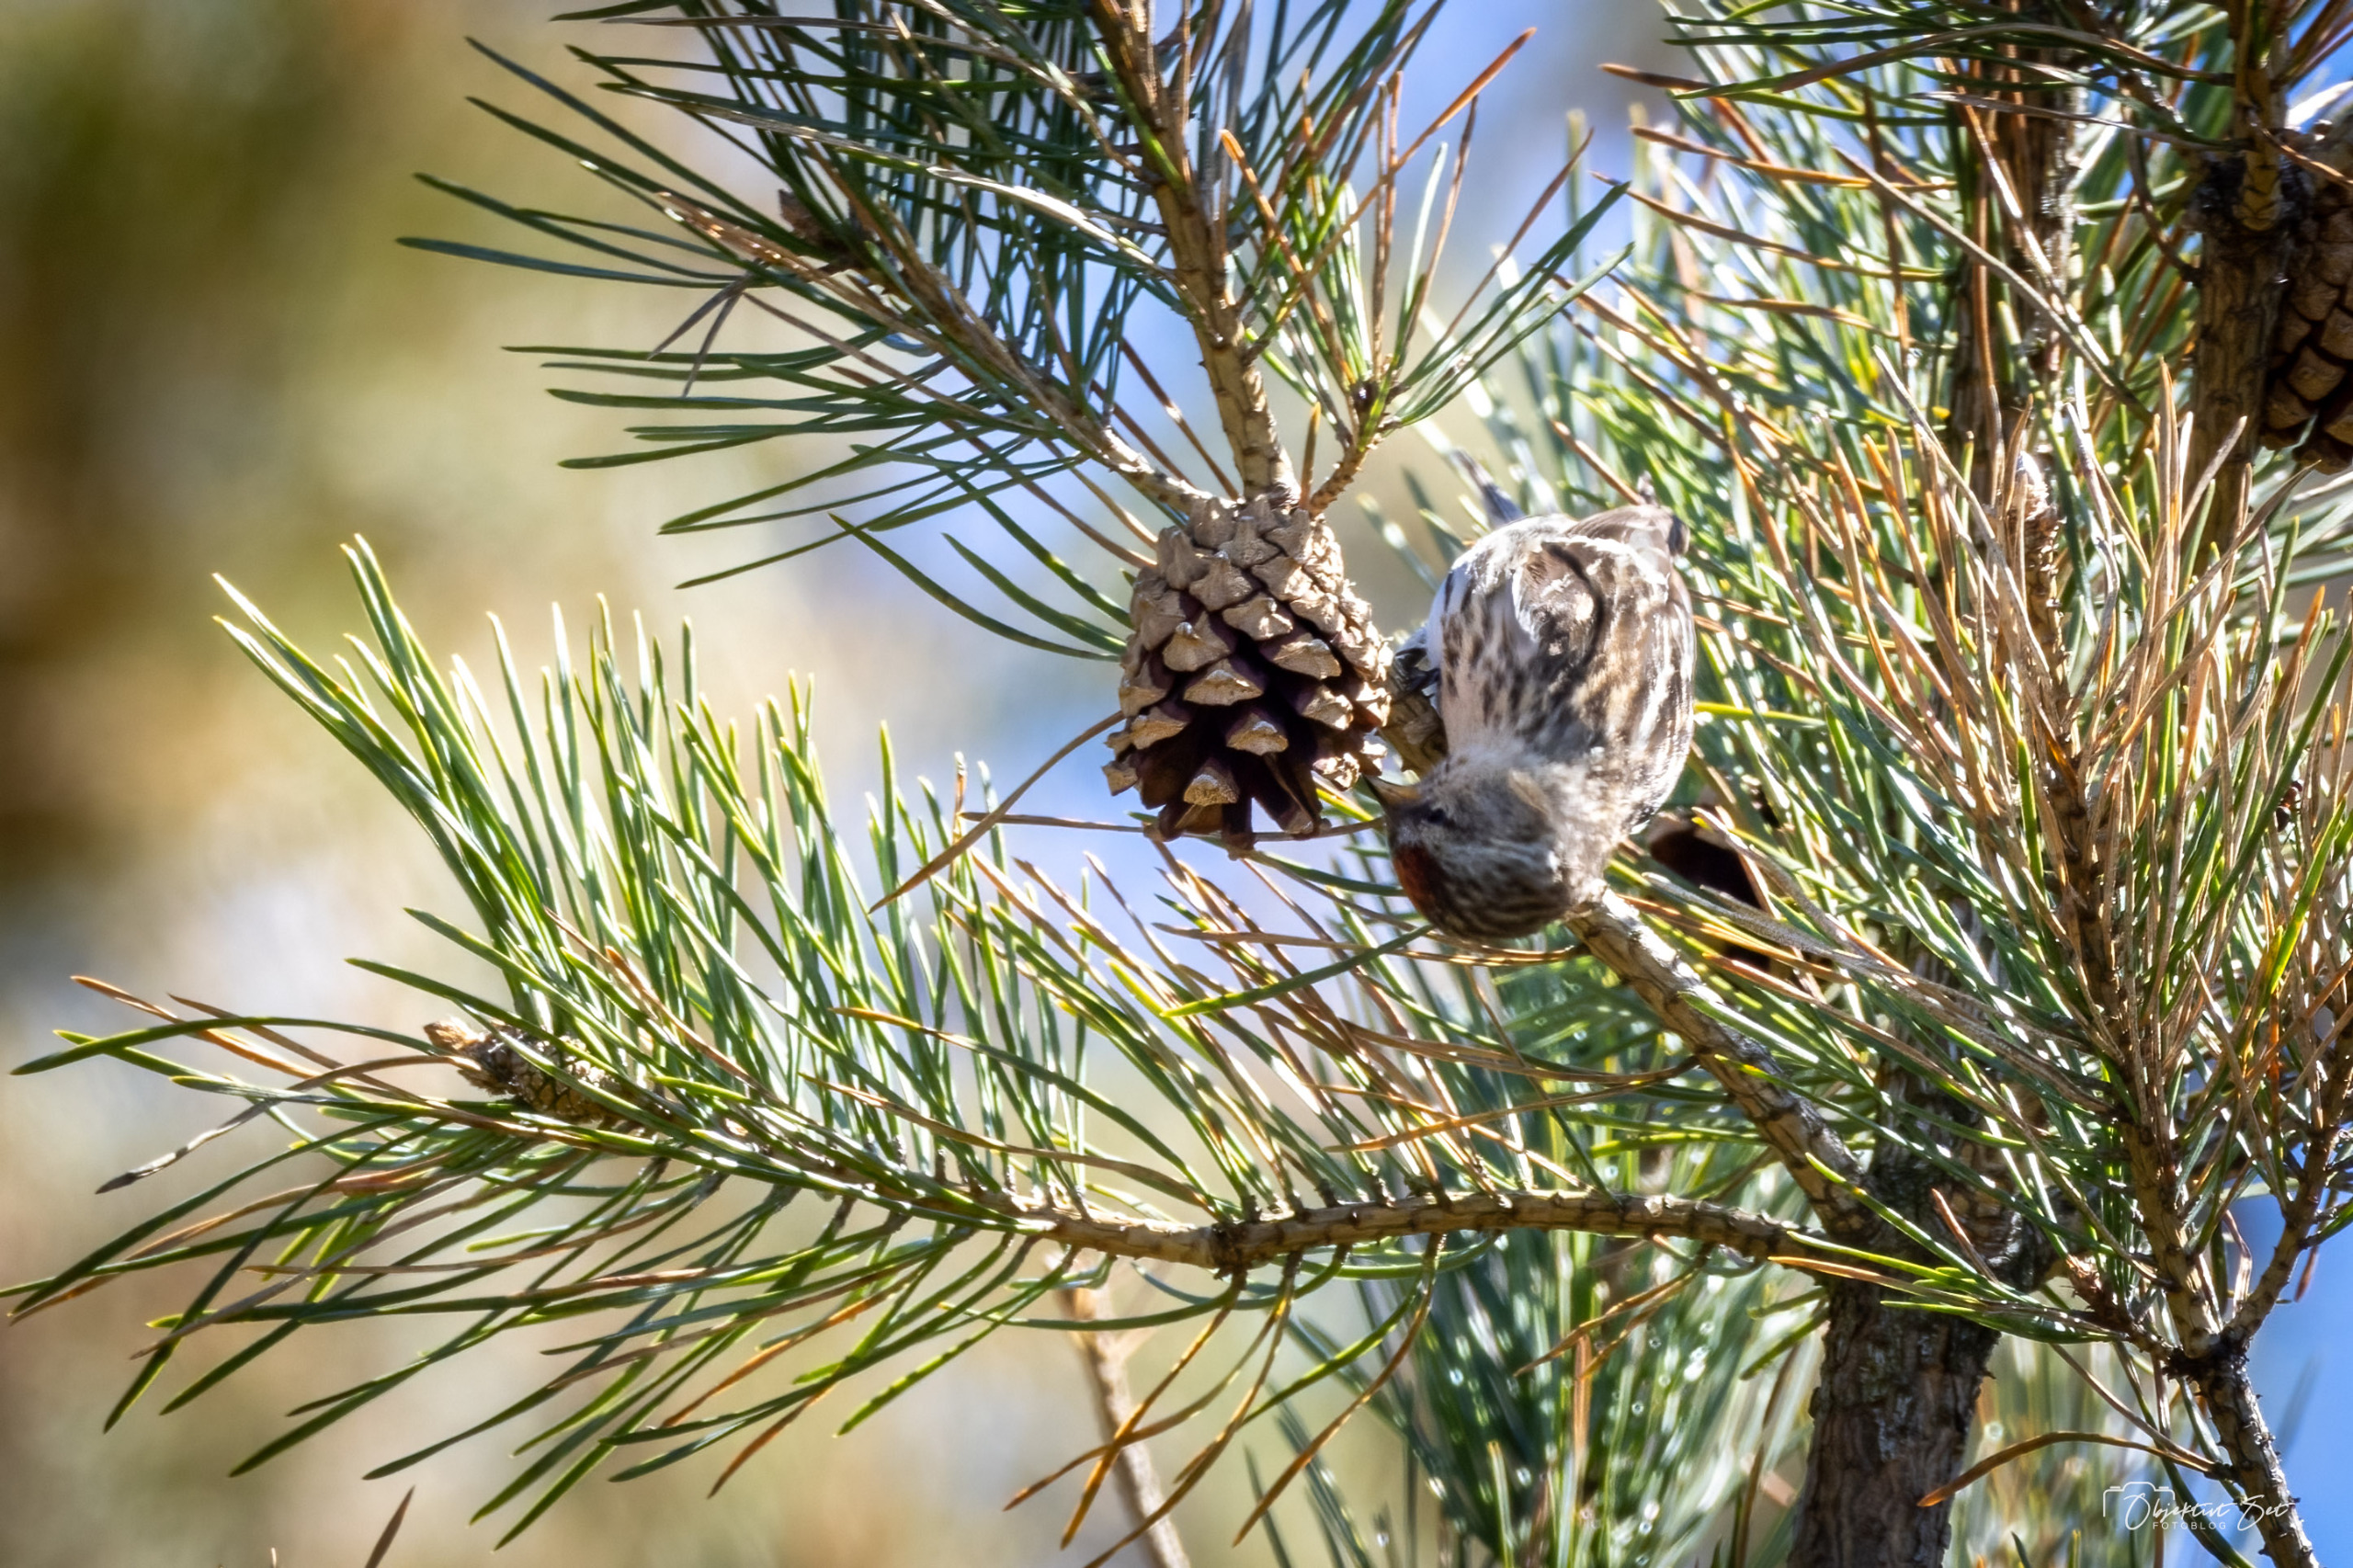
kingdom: Animalia
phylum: Chordata
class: Aves
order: Passeriformes
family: Fringillidae
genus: Acanthis
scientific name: Acanthis flammea
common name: Lille gråsisken
